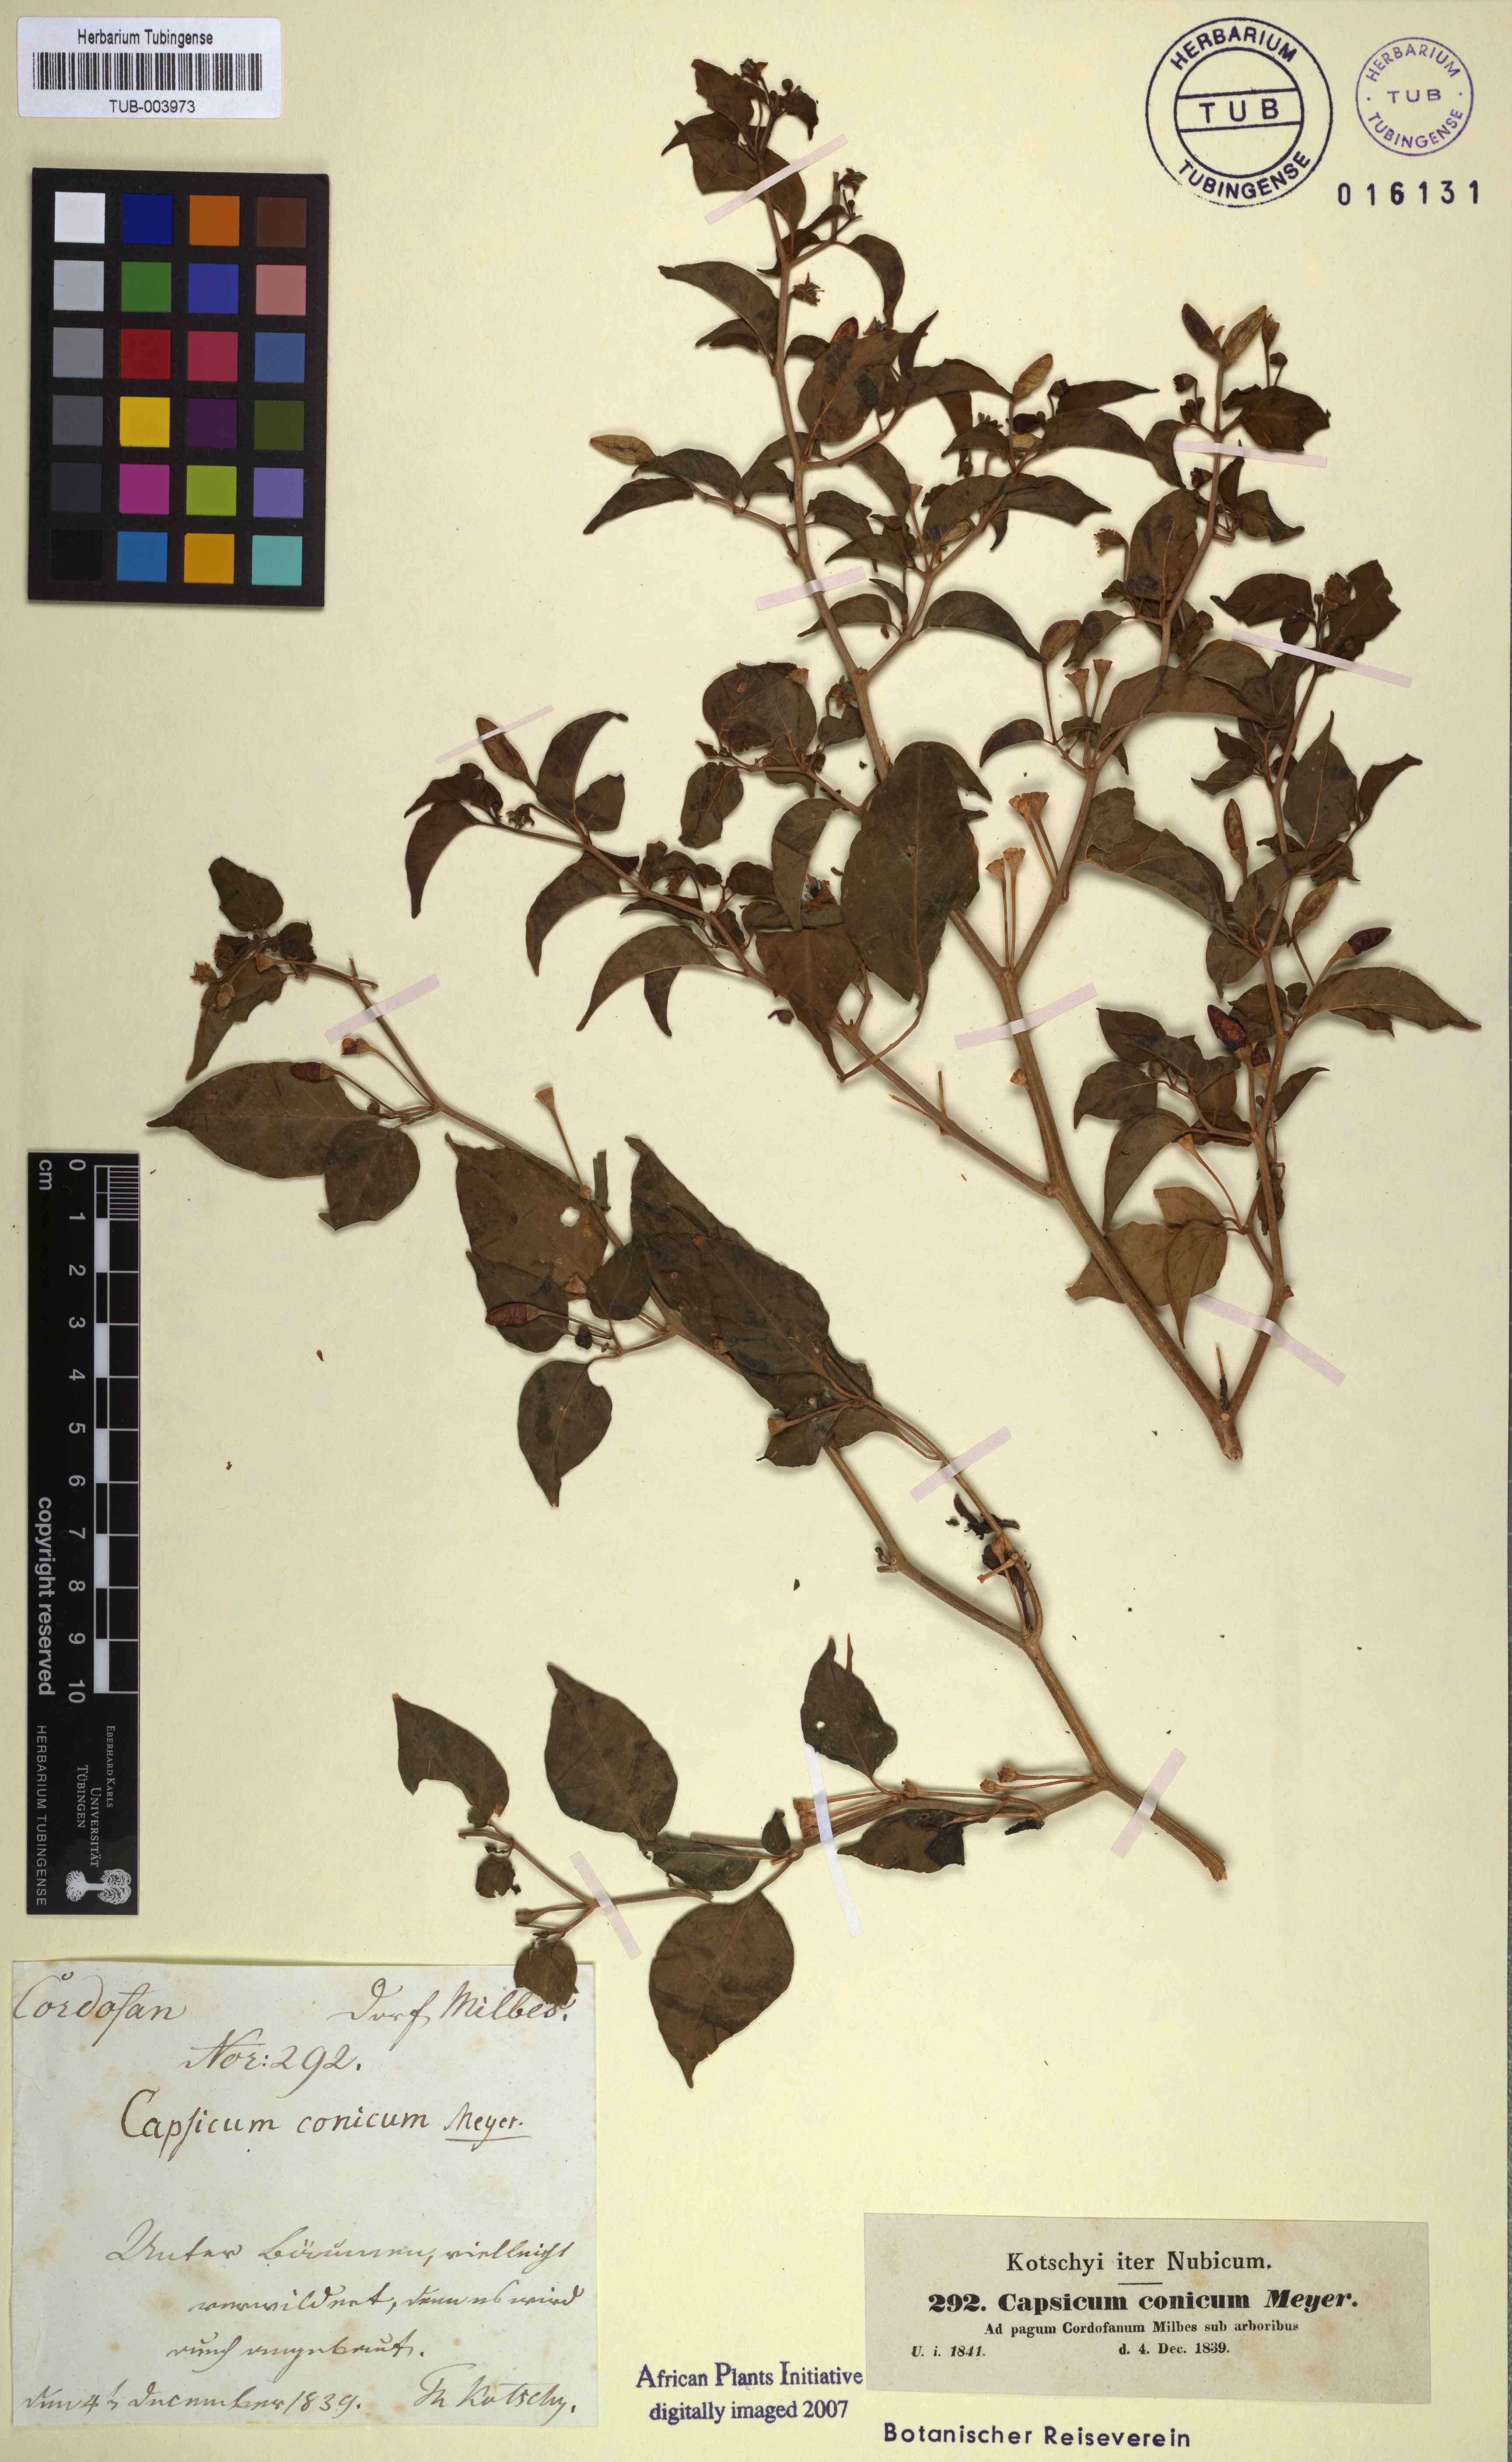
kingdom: Plantae
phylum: Tracheophyta
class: Magnoliopsida
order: Solanales
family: Solanaceae
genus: Capsicum
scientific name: Capsicum frutescens
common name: Bird pepper
